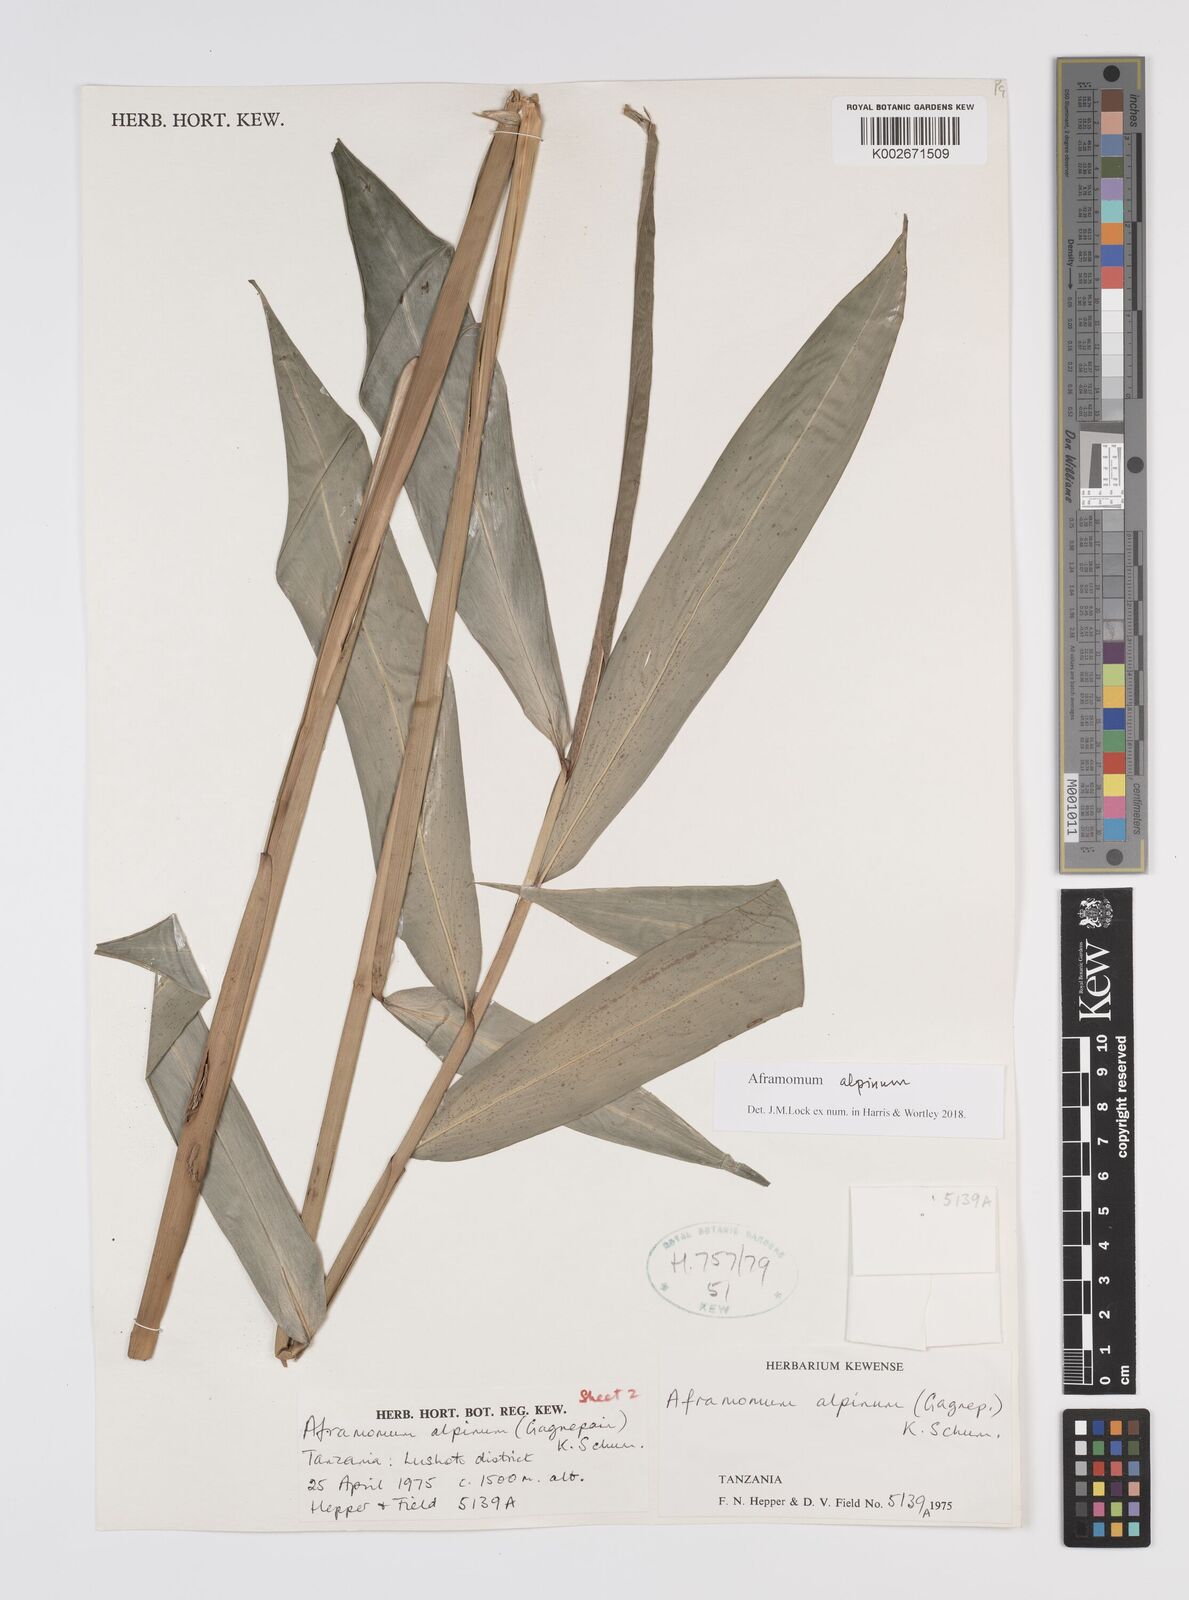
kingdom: Plantae
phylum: Tracheophyta
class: Liliopsida
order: Zingiberales
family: Zingiberaceae
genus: Aframomum
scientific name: Aframomum alpinum
